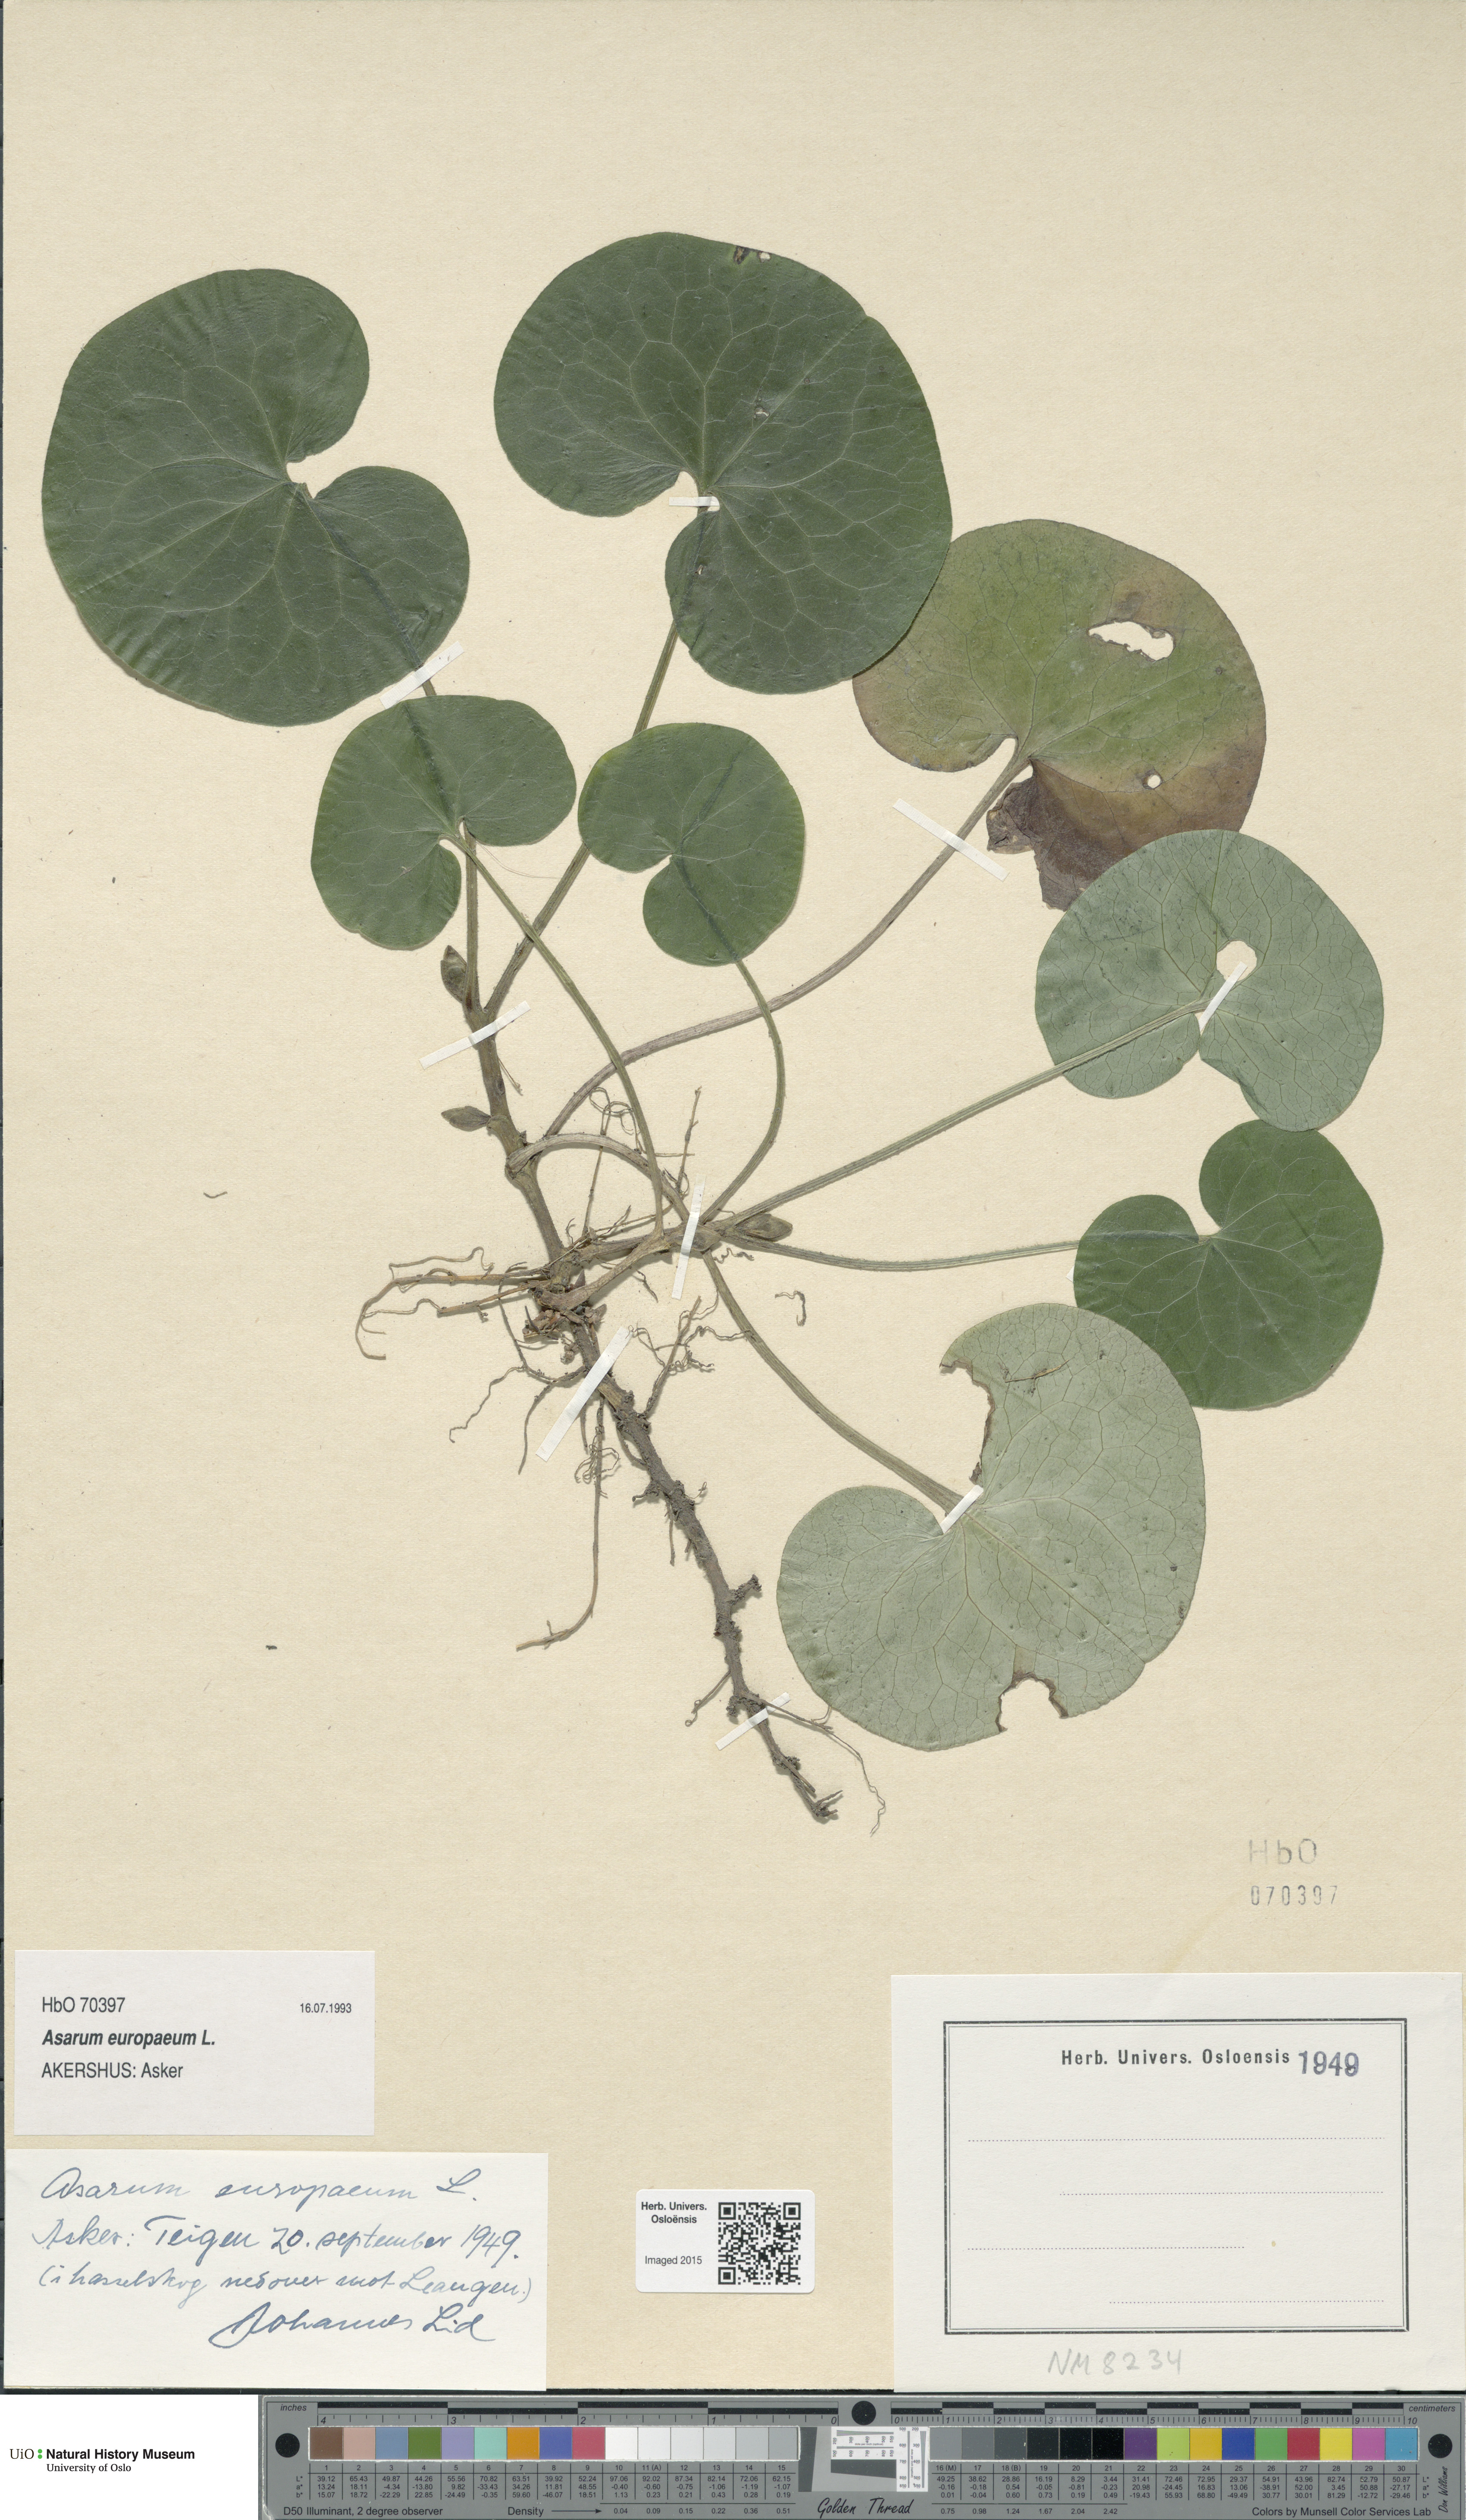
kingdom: Plantae
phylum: Tracheophyta
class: Magnoliopsida
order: Piperales
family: Aristolochiaceae
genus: Asarum
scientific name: Asarum europaeum
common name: Asarabacca
